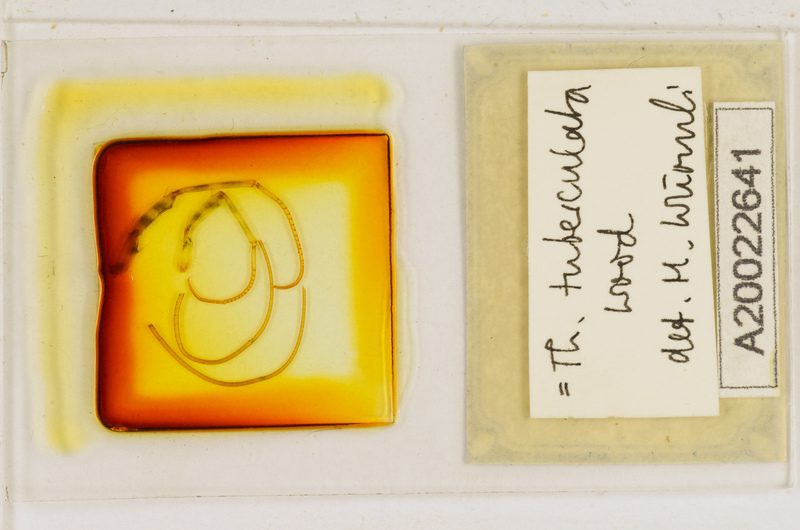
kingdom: Animalia
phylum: Arthropoda
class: Chilopoda
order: Scutigeromorpha
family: Scutigeridae
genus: Thereuonema
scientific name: Thereuonema tuberculata
